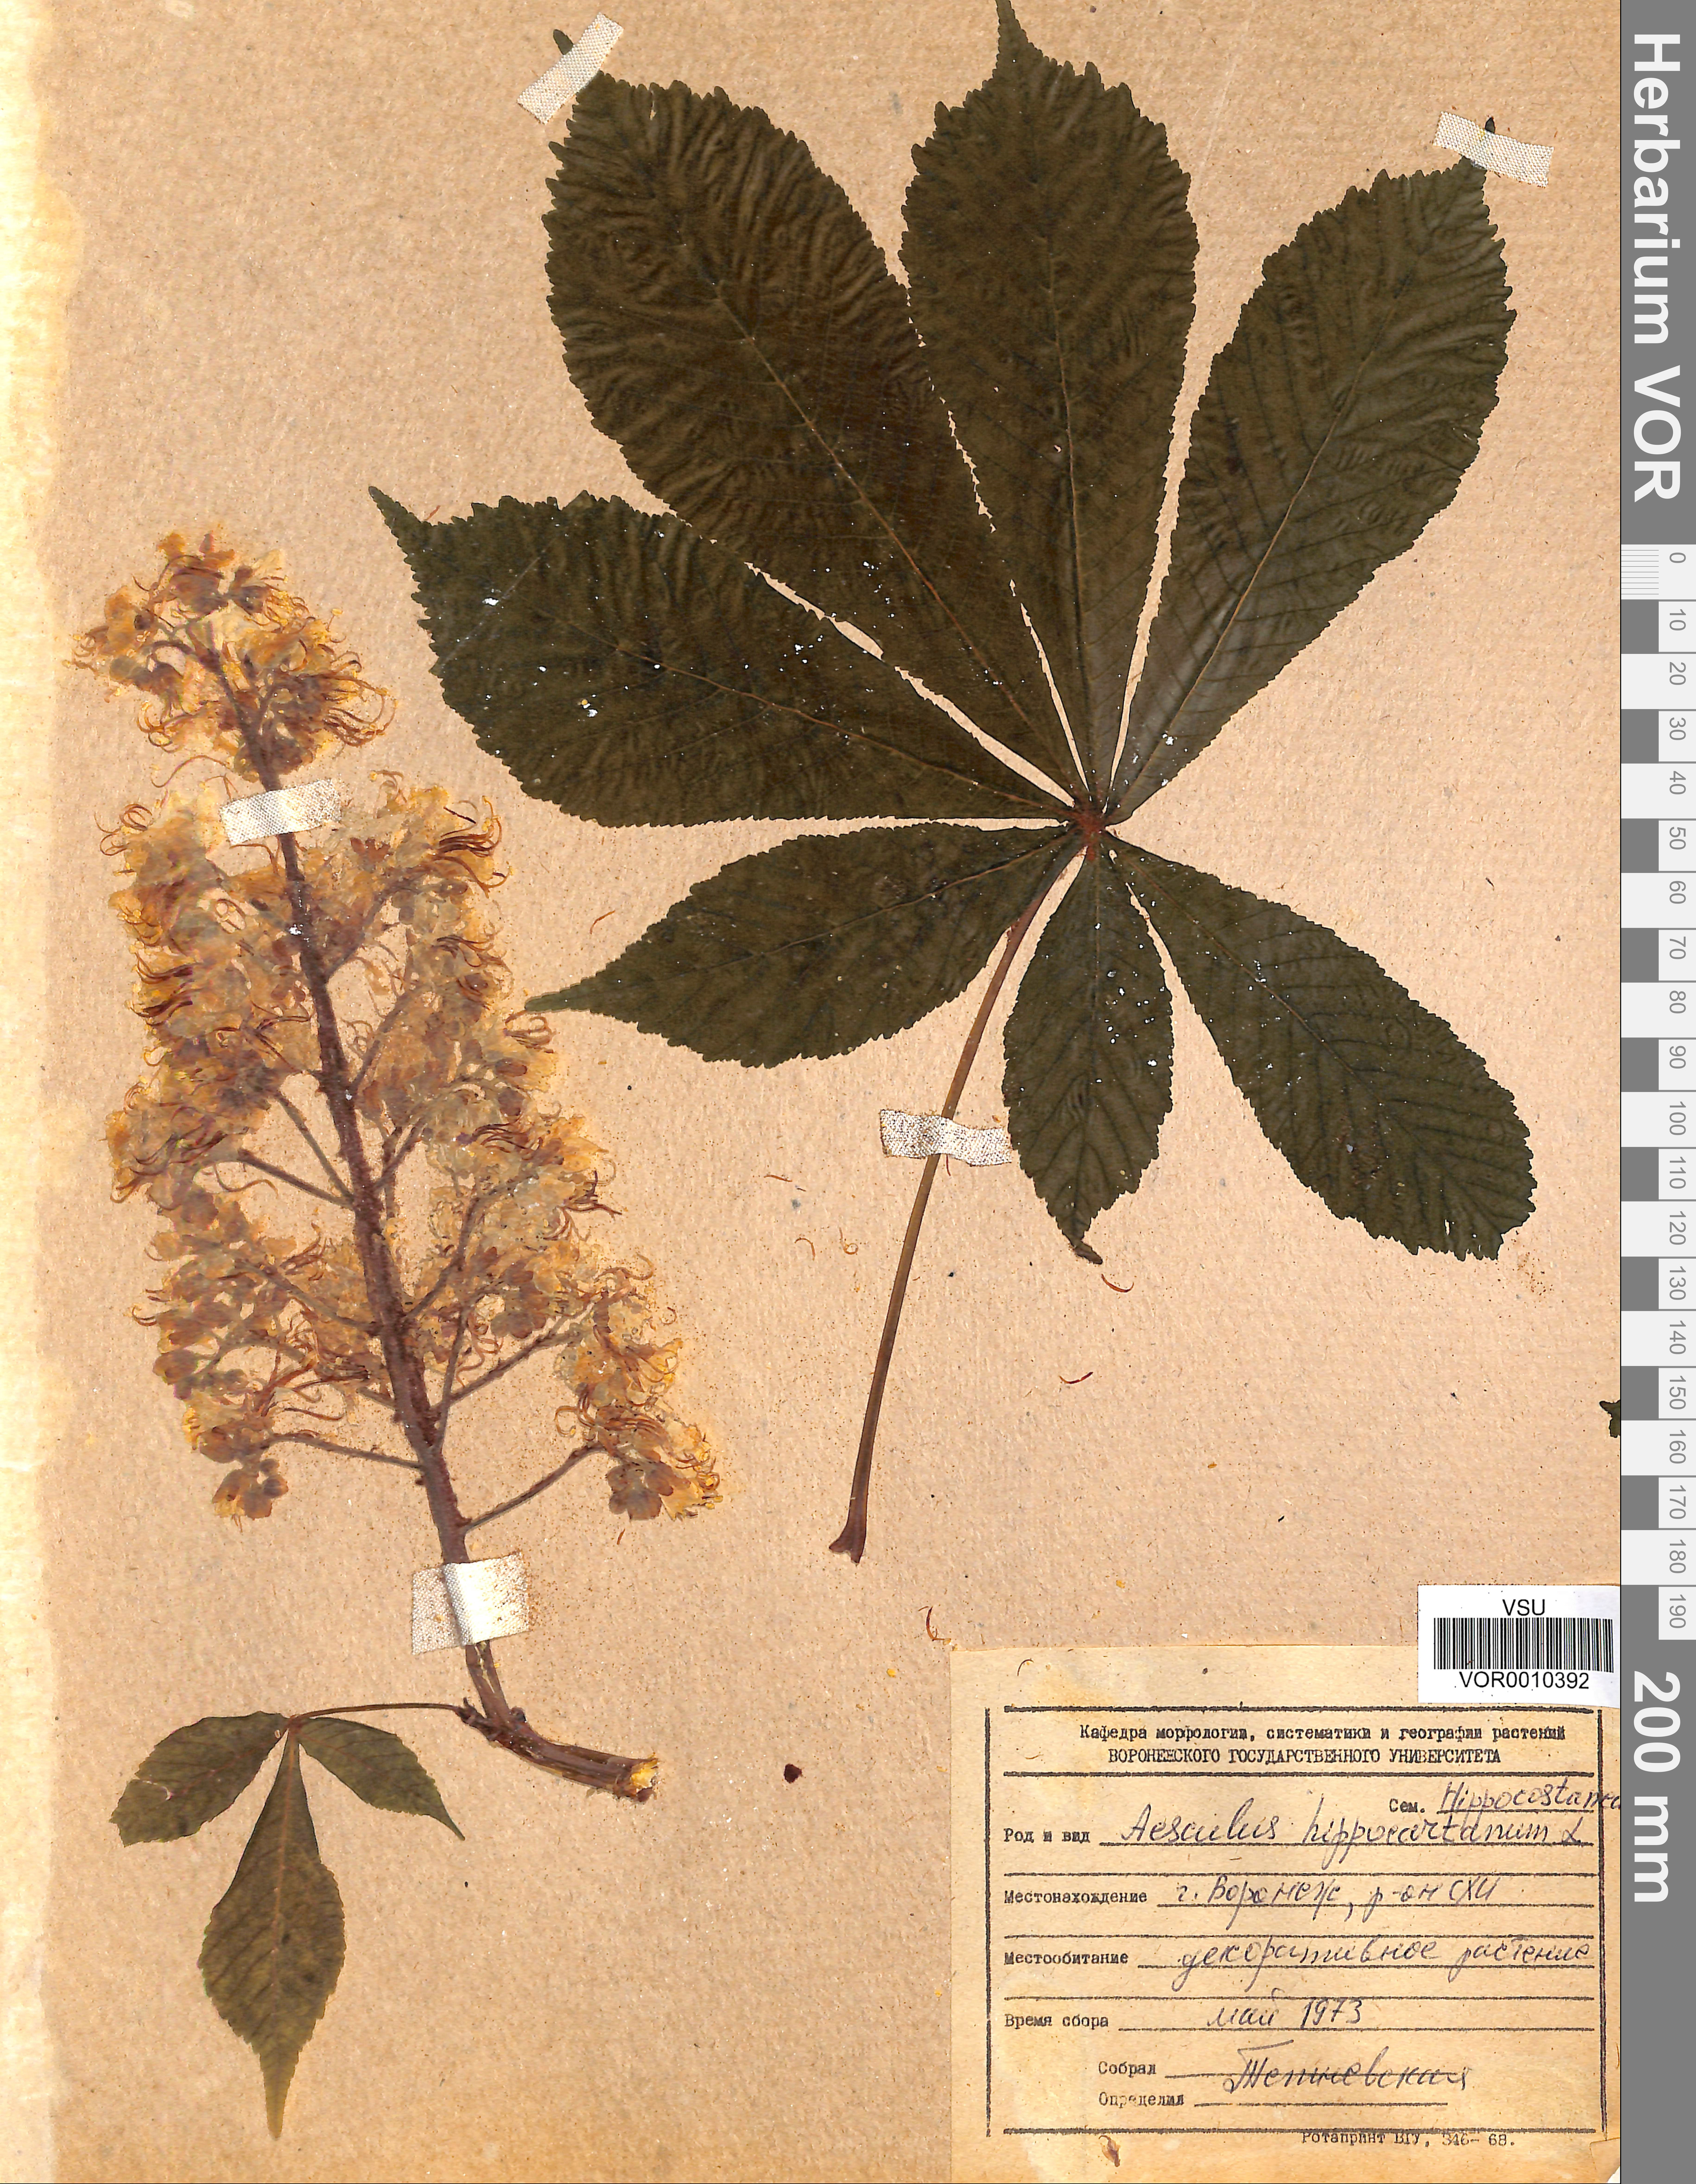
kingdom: Plantae
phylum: Tracheophyta
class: Magnoliopsida
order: Sapindales
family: Sapindaceae
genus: Aesculus
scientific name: Aesculus hippocastanum
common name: Horse-chestnut
